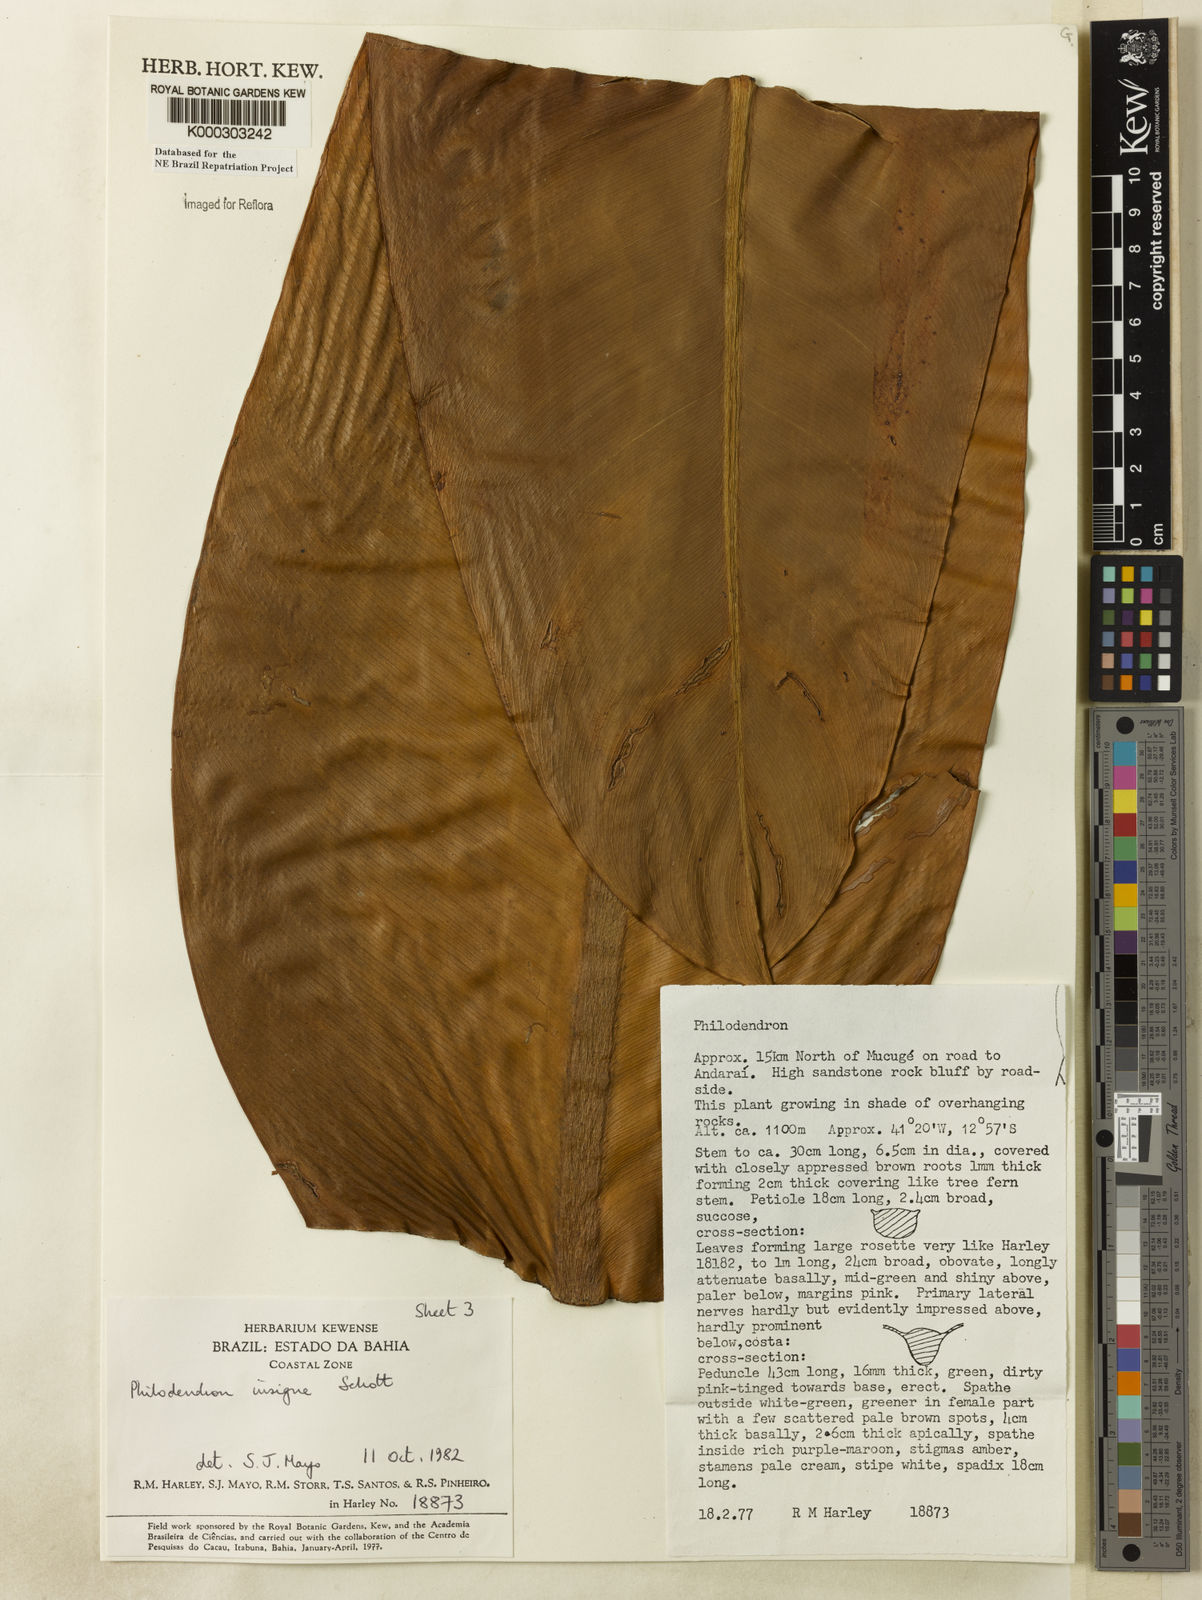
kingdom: Plantae
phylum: Tracheophyta
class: Liliopsida
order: Alismatales
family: Araceae
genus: Philodendron
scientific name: Philodendron insigne
